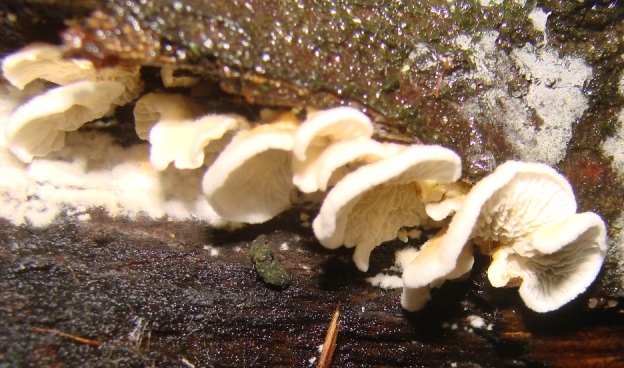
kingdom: Fungi
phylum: Basidiomycota
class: Agaricomycetes
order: Amylocorticiales
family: Amylocorticiaceae
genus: Plicaturopsis
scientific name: Plicaturopsis crispa
